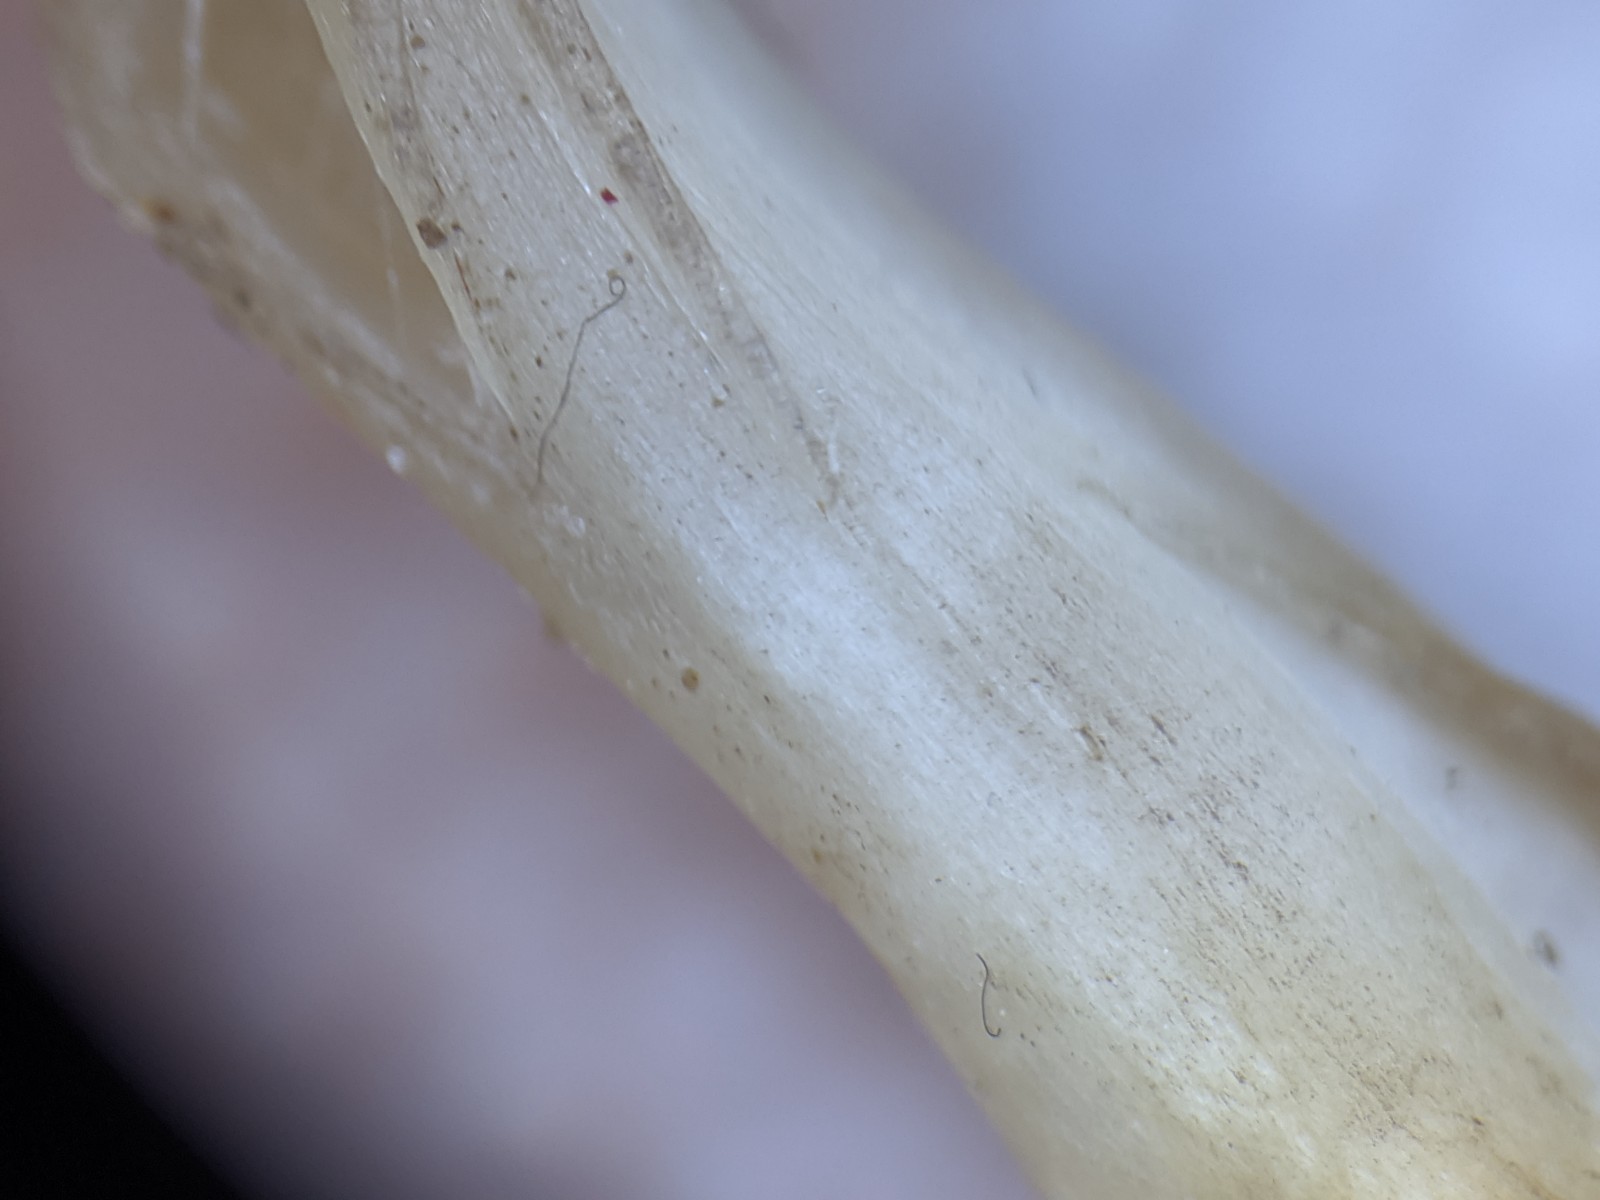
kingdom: Fungi
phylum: Basidiomycota
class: Agaricomycetes
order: Agaricales
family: Psathyrellaceae
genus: Coprinellus
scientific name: Coprinellus
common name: blækhat
